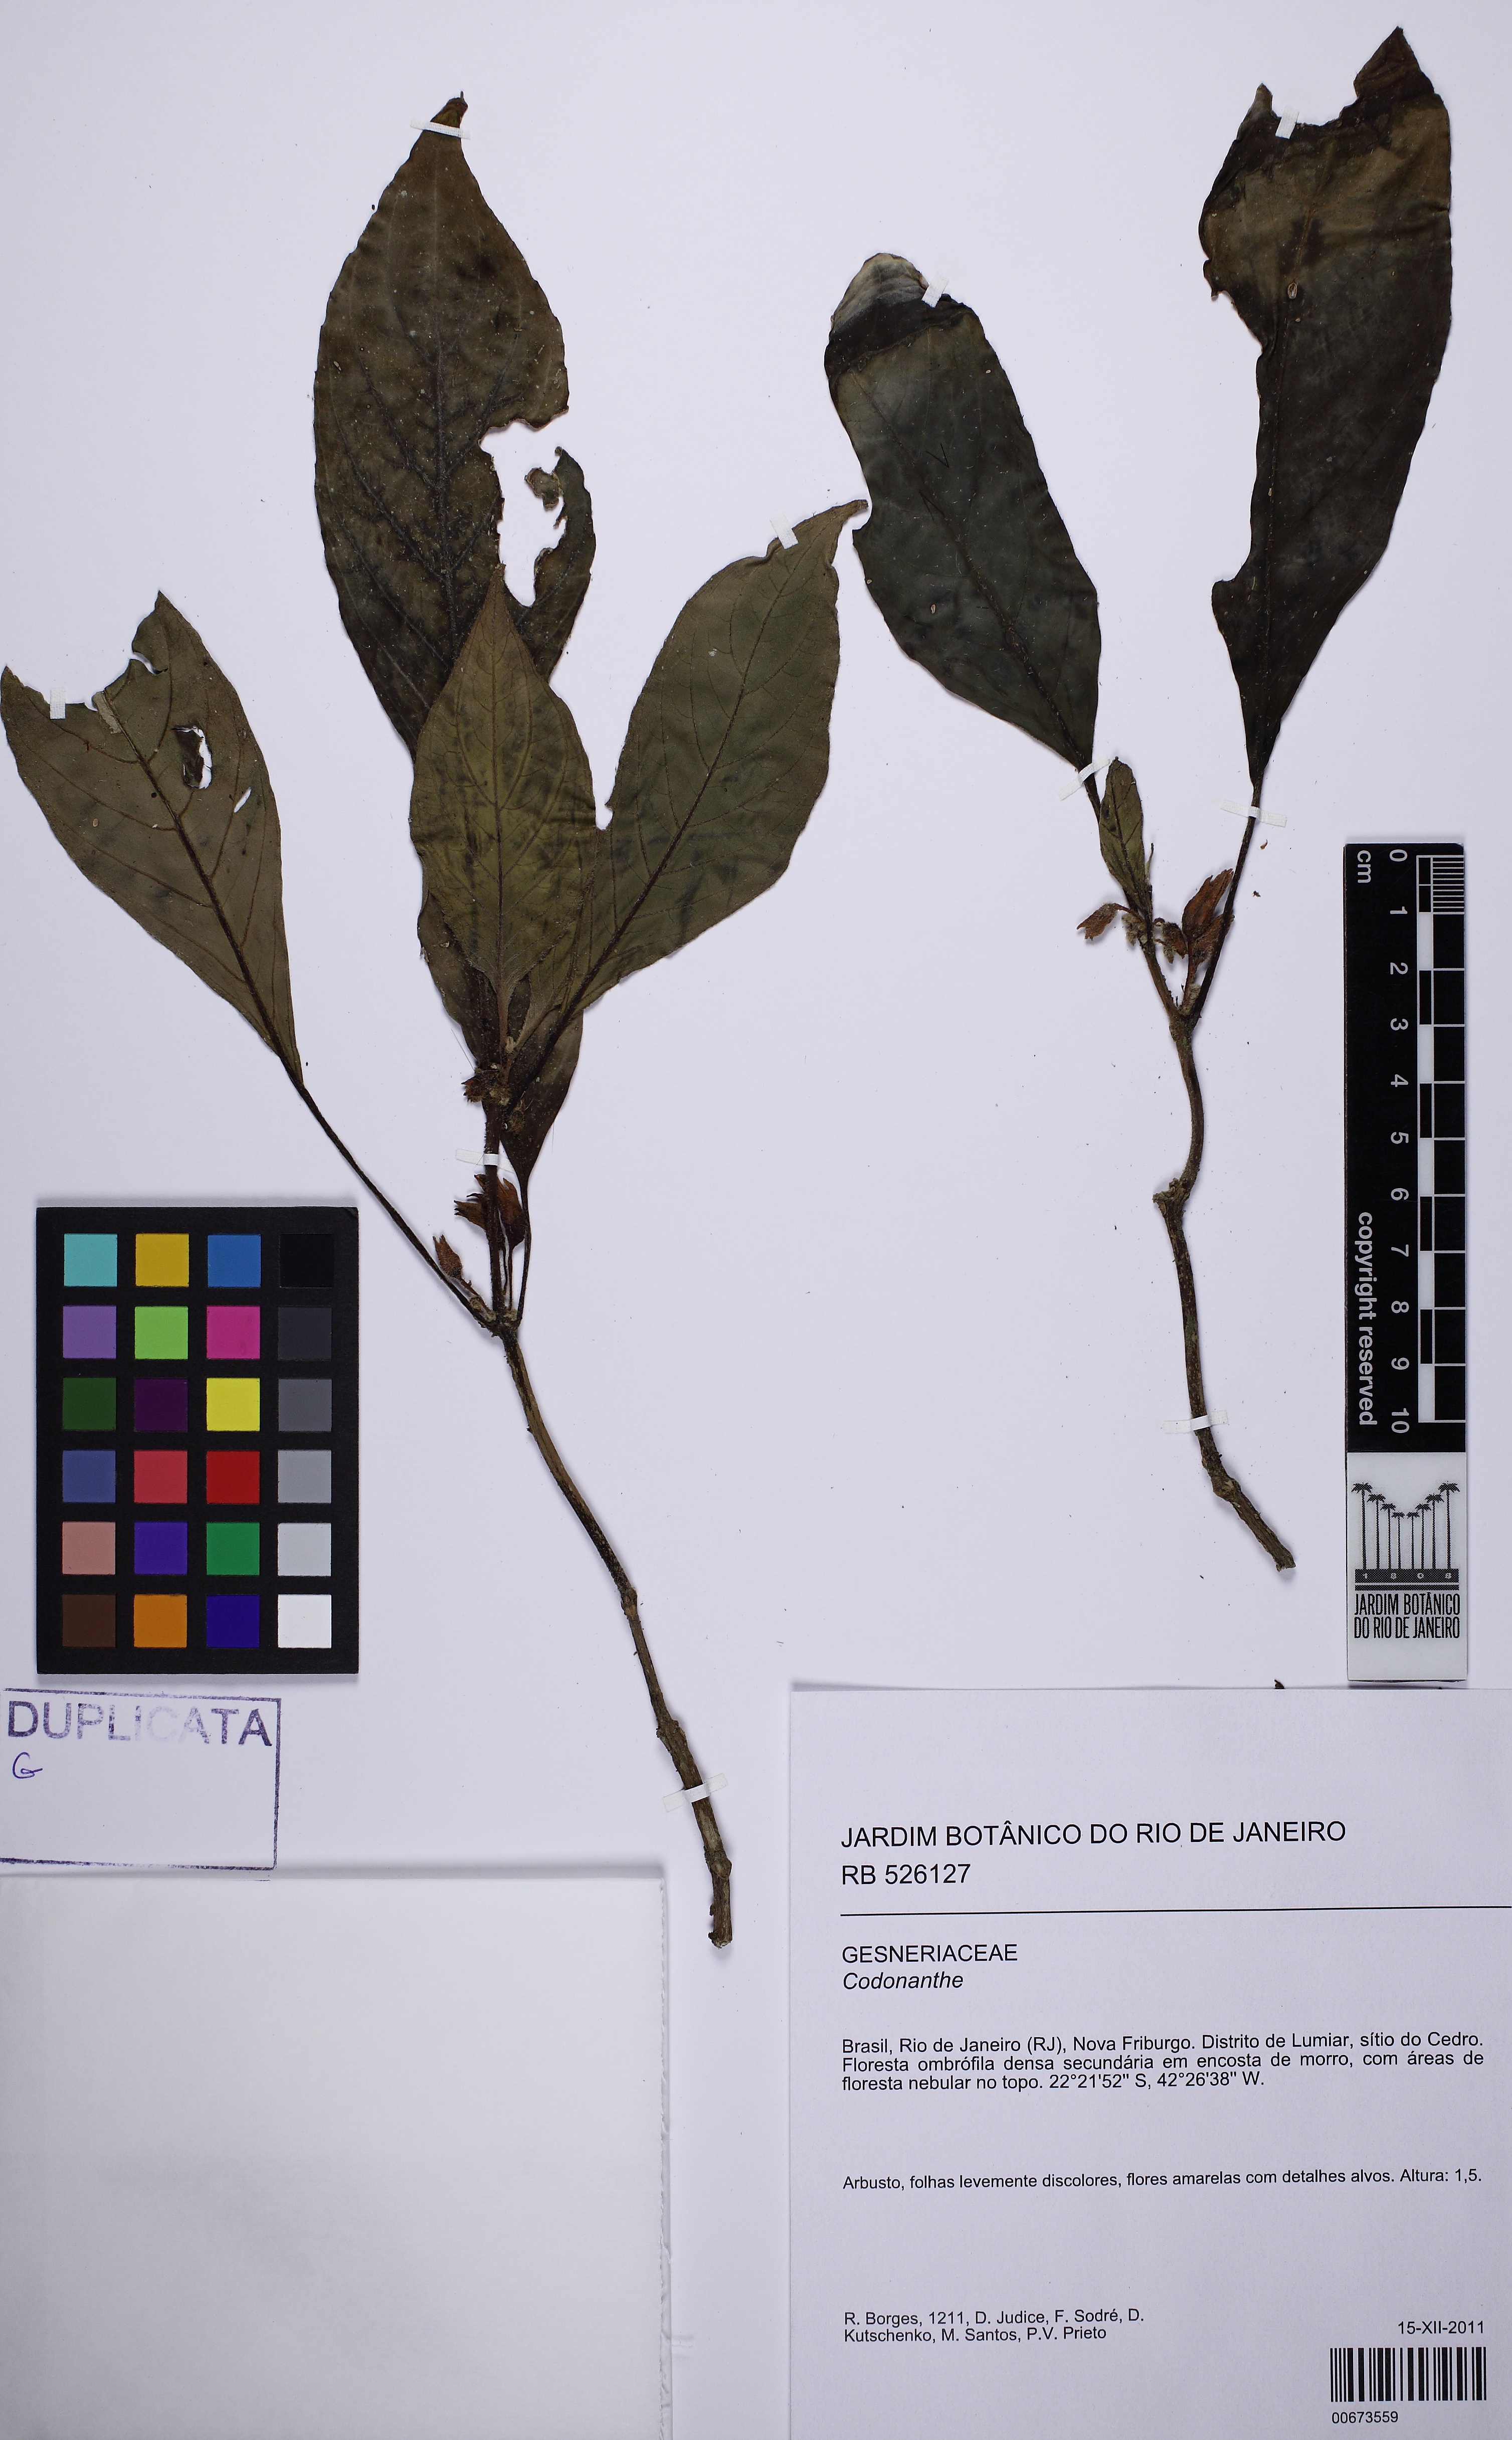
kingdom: Plantae
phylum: Tracheophyta
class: Magnoliopsida
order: Lamiales
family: Gesneriaceae
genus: Besleria
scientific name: Besleria longimucronata
